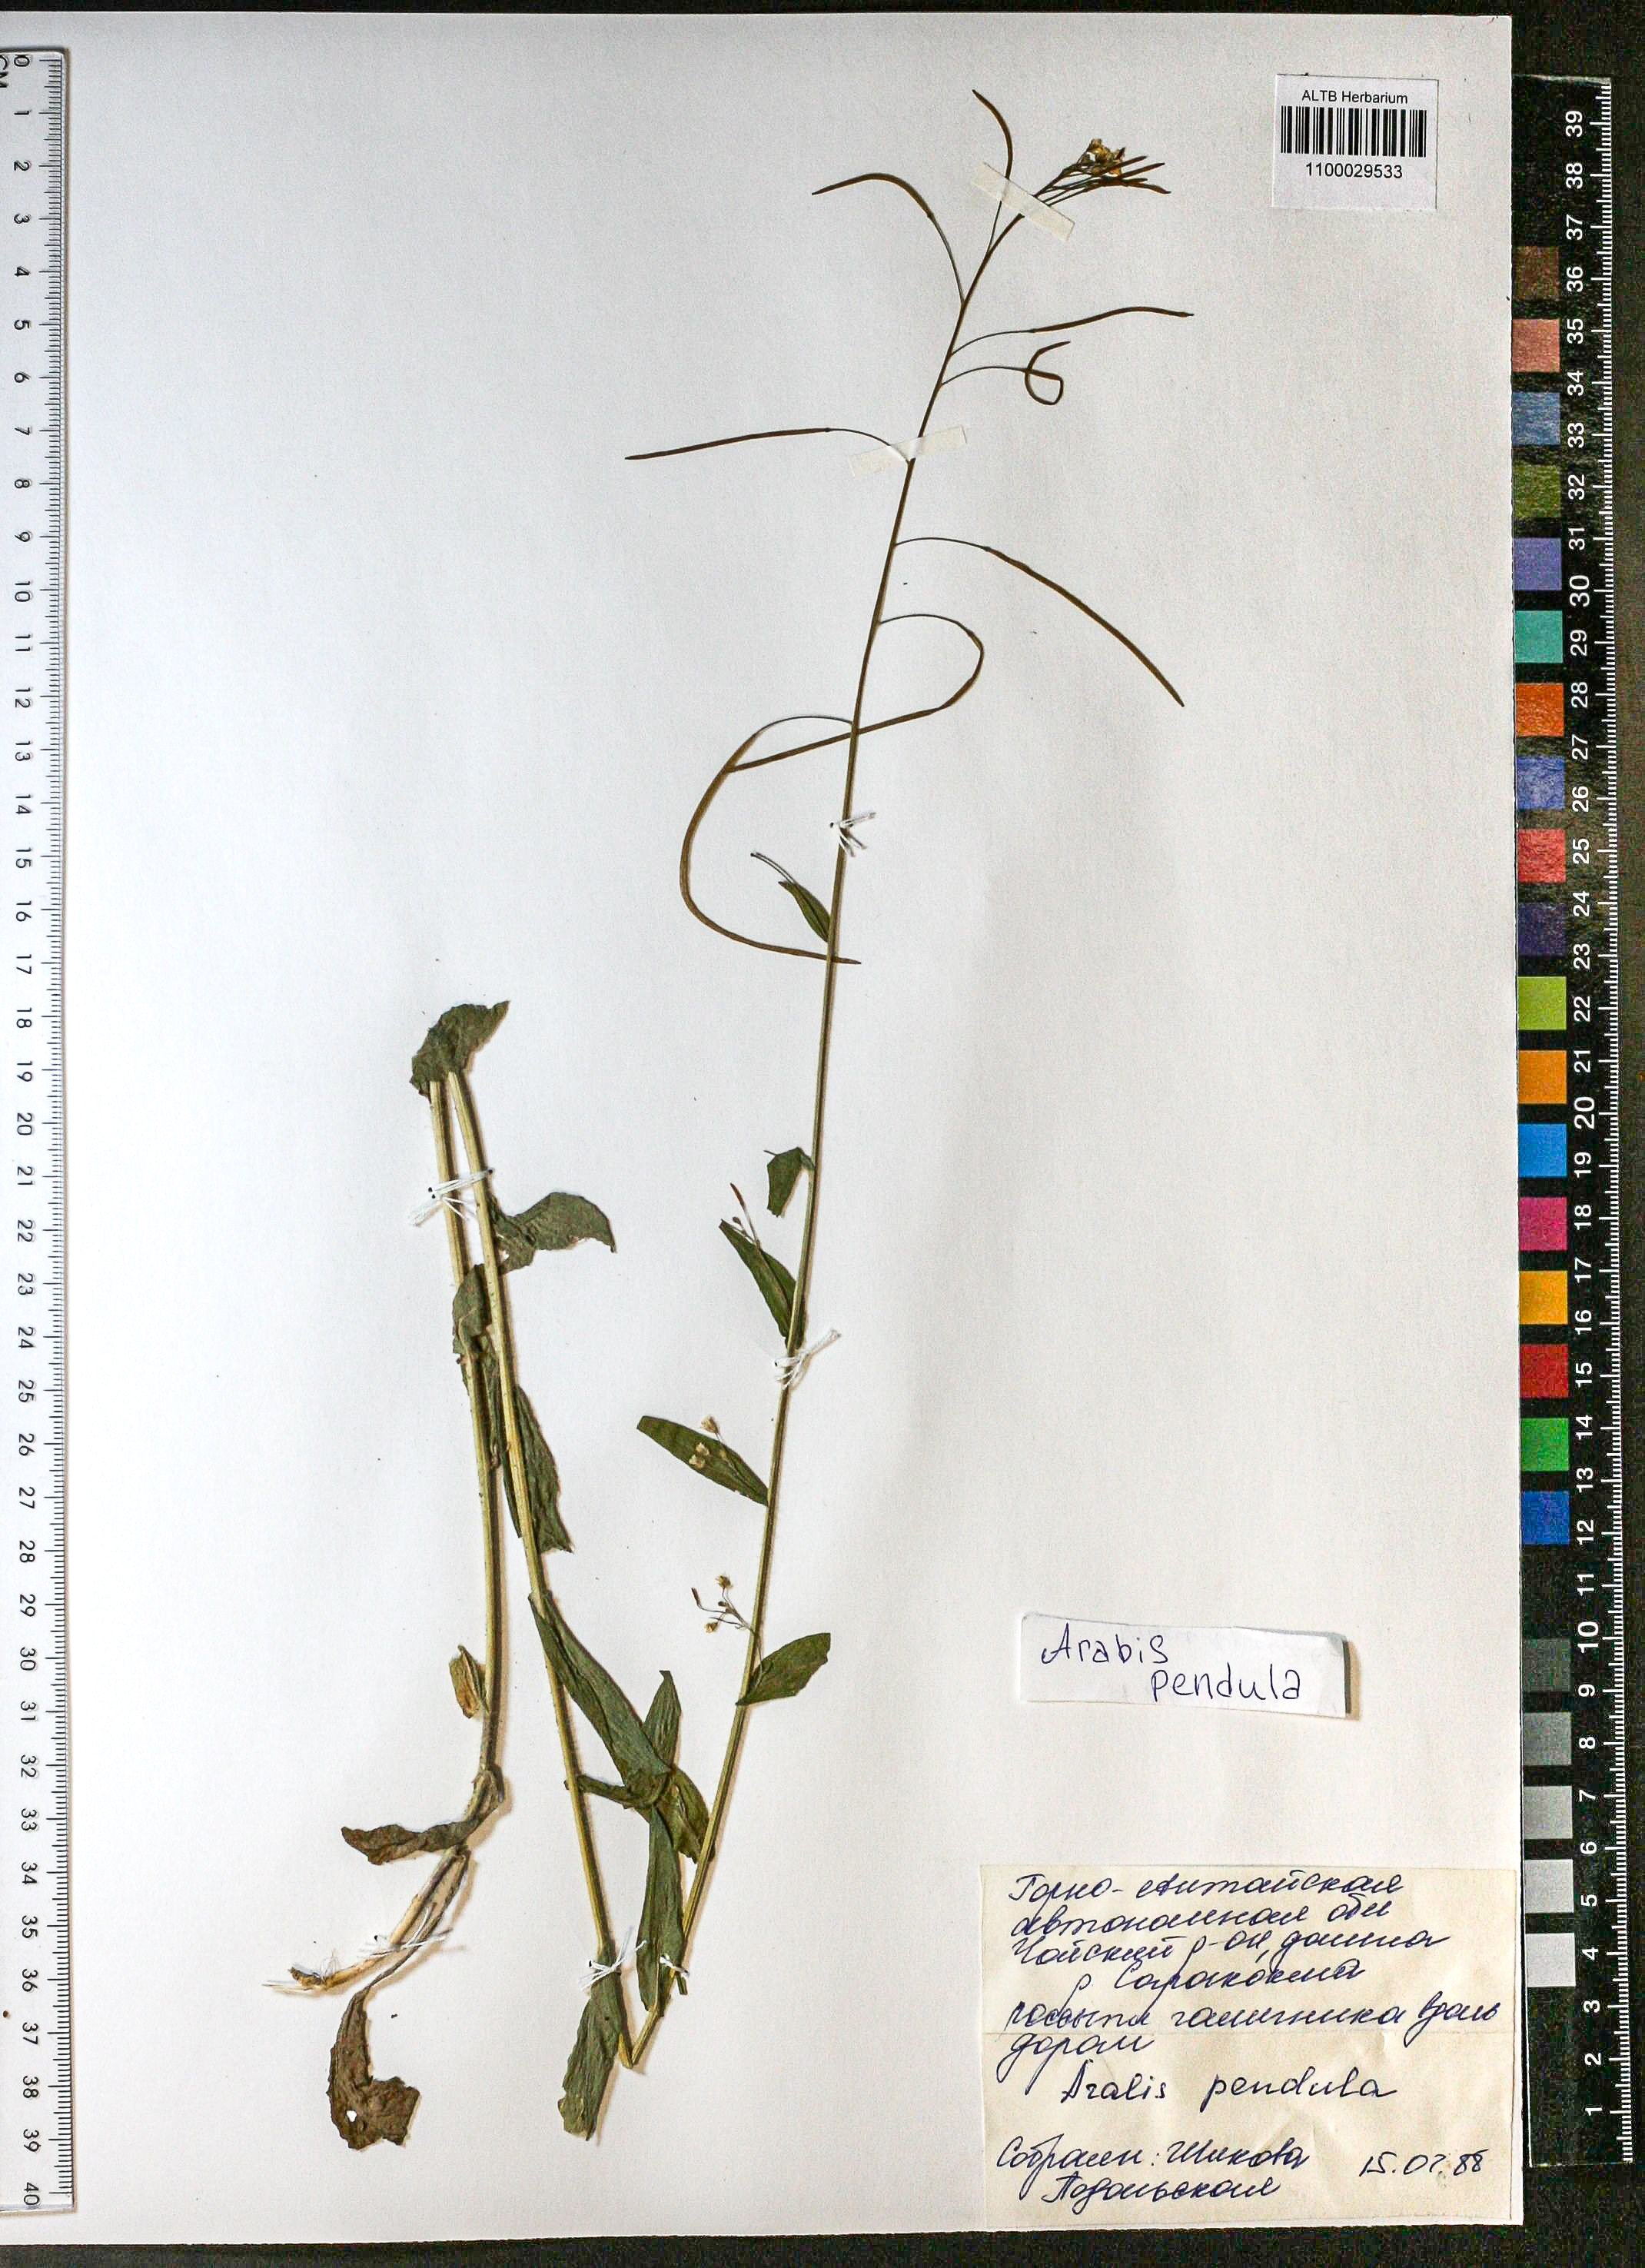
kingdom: Plantae
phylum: Tracheophyta
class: Magnoliopsida
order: Brassicales
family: Brassicaceae
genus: Catolobus
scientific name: Catolobus pendulus
